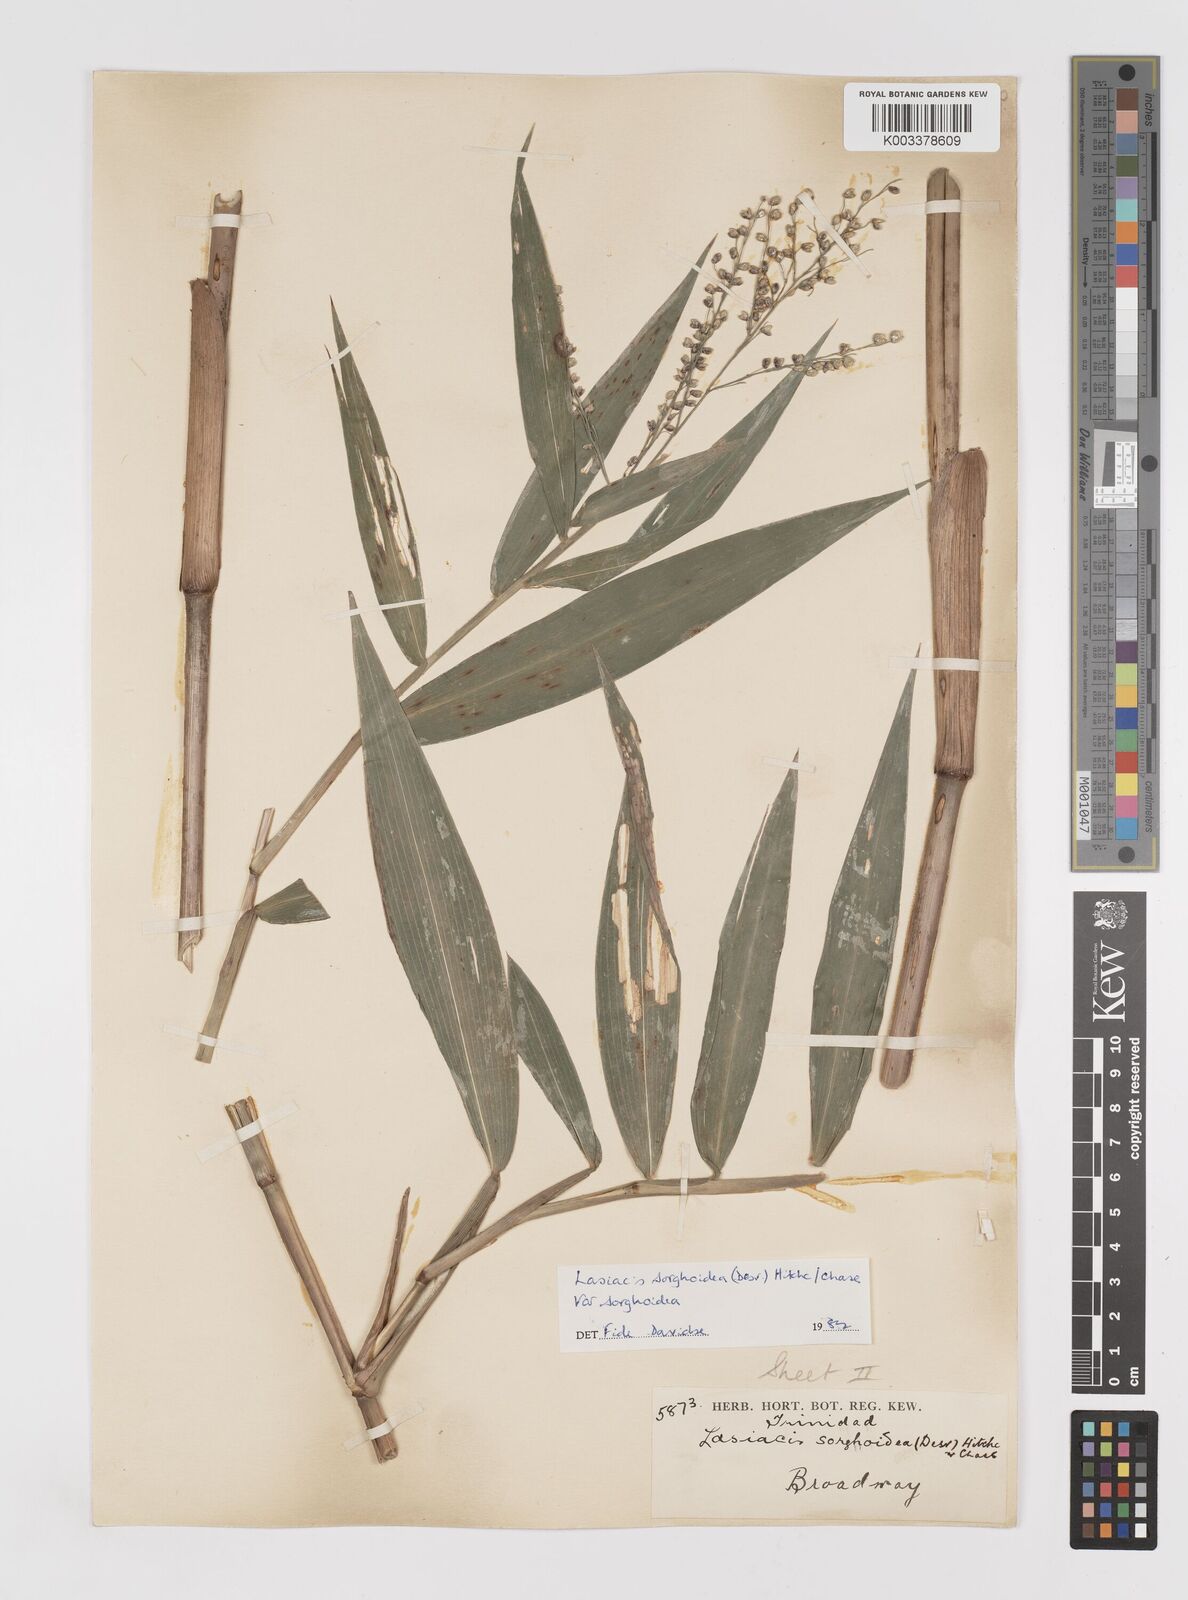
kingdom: Plantae
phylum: Tracheophyta
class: Liliopsida
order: Poales
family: Poaceae
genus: Lasiacis
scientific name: Lasiacis maculata
